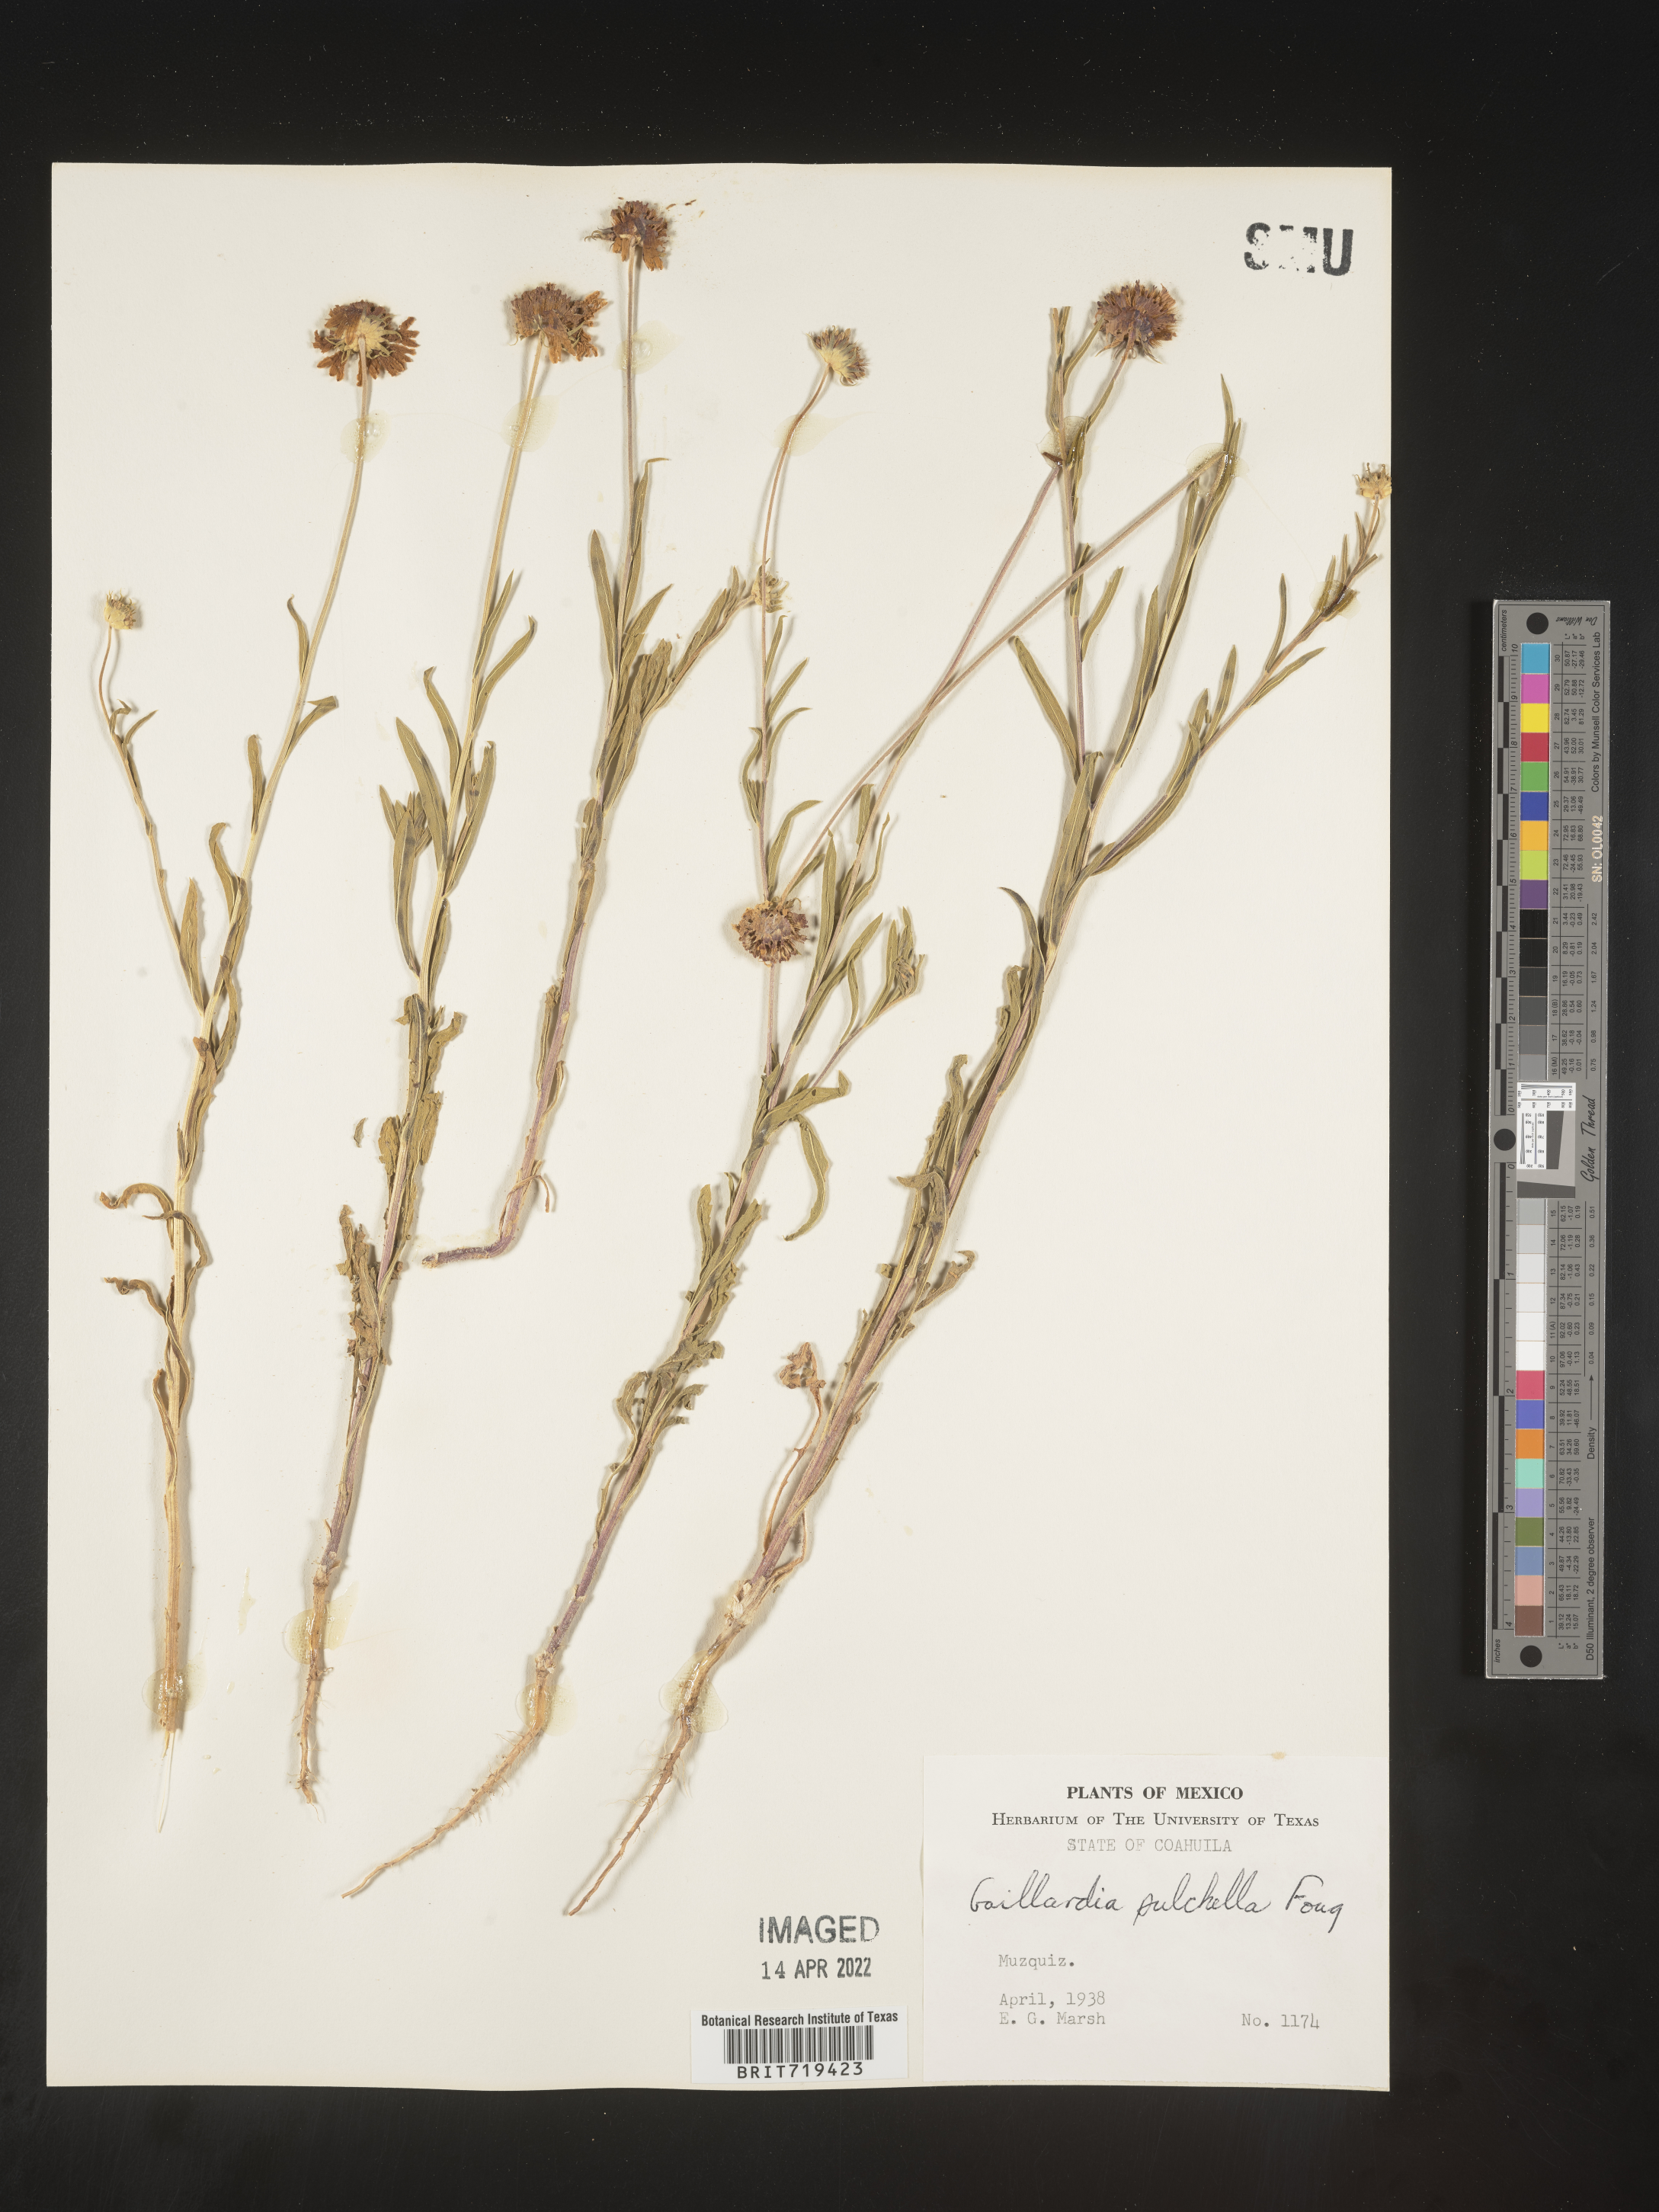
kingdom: Plantae
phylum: Tracheophyta
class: Magnoliopsida
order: Asterales
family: Asteraceae
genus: Gaillardia
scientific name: Gaillardia
